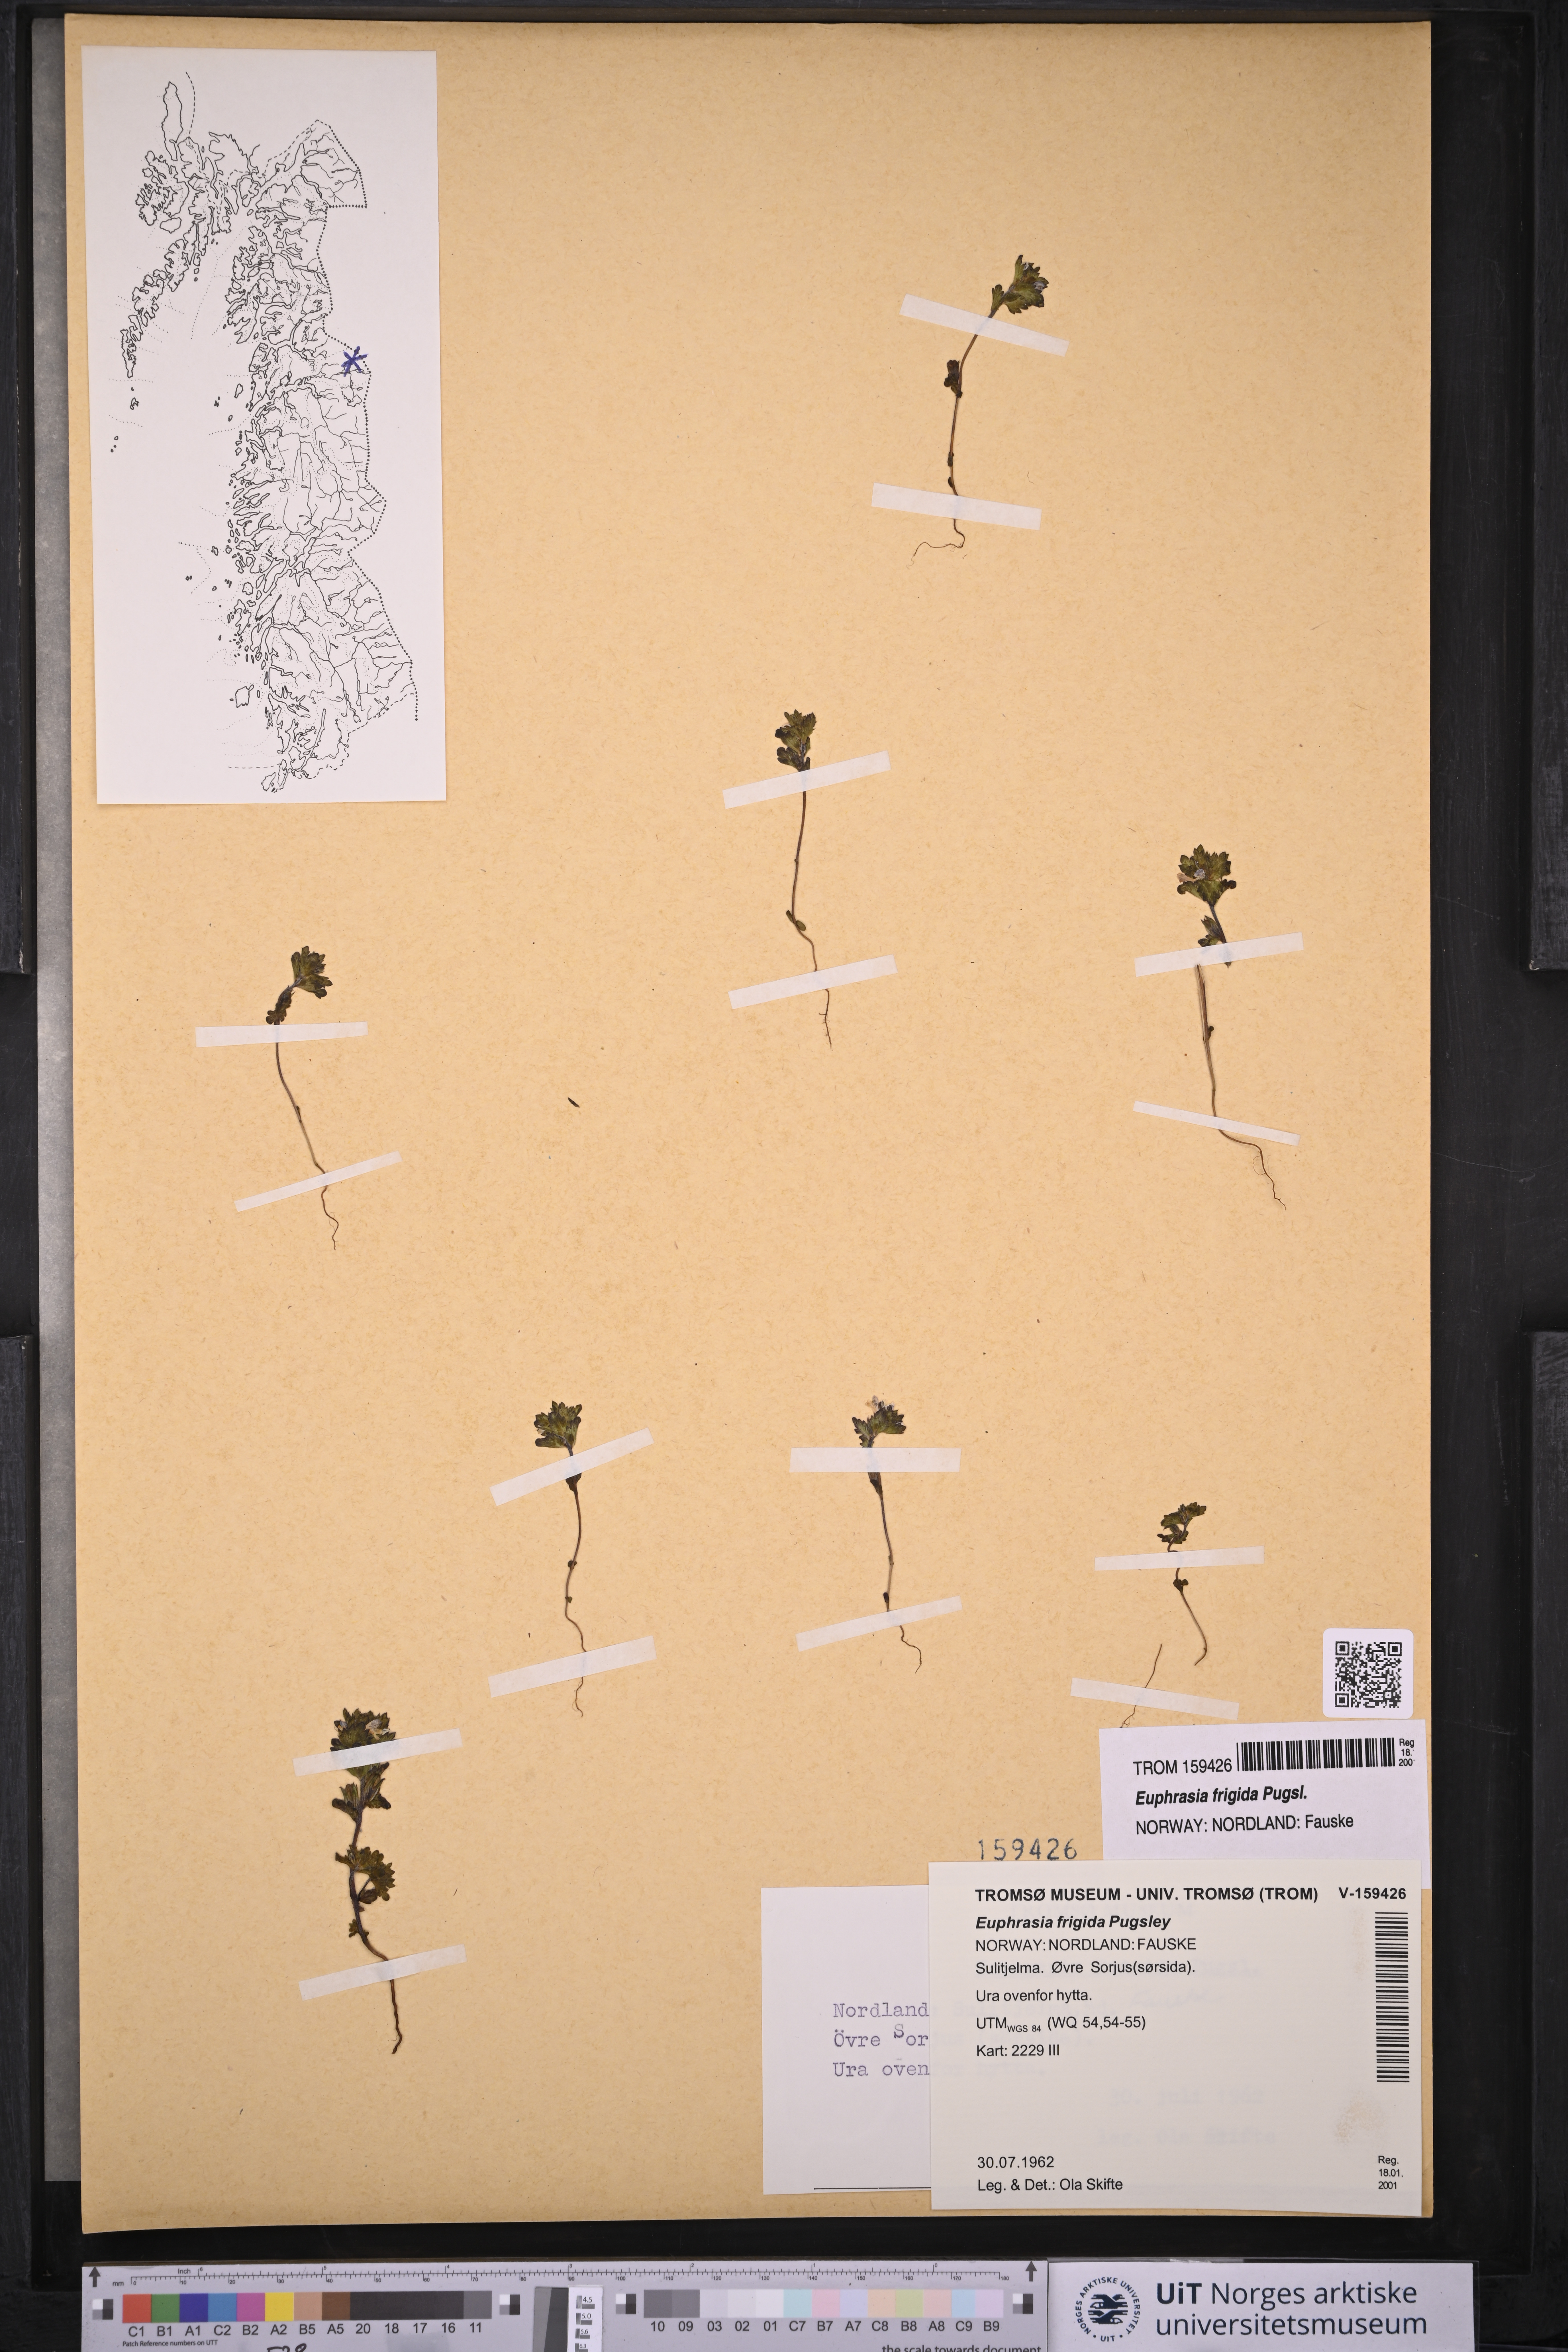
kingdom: Plantae
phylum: Tracheophyta
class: Magnoliopsida
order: Lamiales
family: Orobanchaceae
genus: Euphrasia
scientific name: Euphrasia frigida
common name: An eyebright
